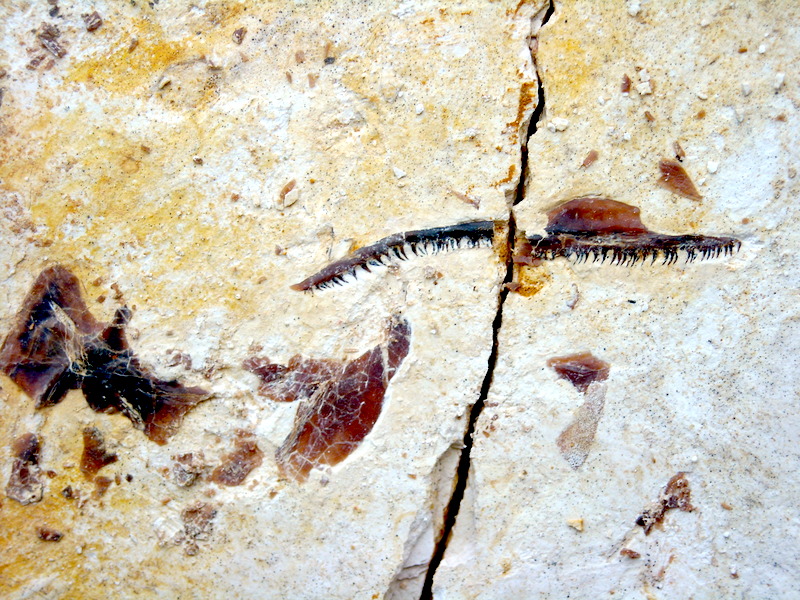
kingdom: Animalia
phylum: Chordata
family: Aspidorhynchidae
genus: Aspidorhynchus
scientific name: Aspidorhynchus sanzenbacheri
